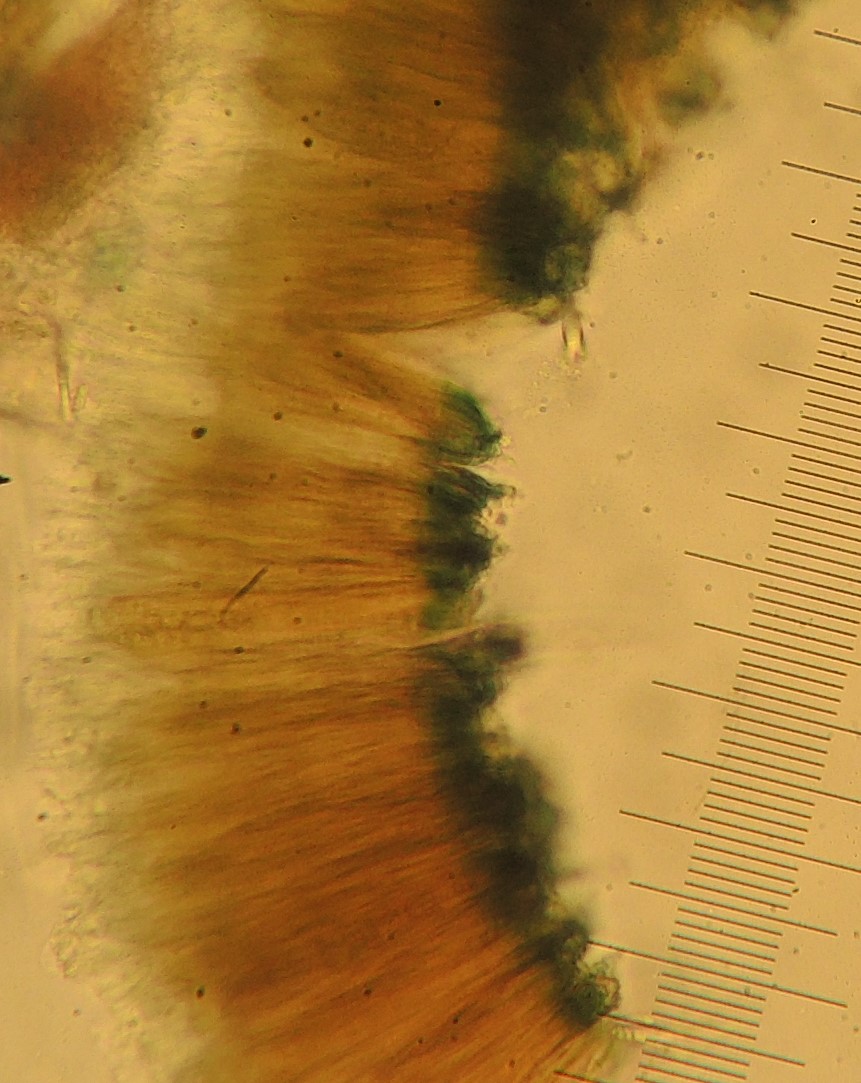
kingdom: Fungi
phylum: Ascomycota
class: Leotiomycetes
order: Rhytismatales
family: Rhytismataceae
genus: Karstenia
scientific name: Karstenia
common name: barkhul
